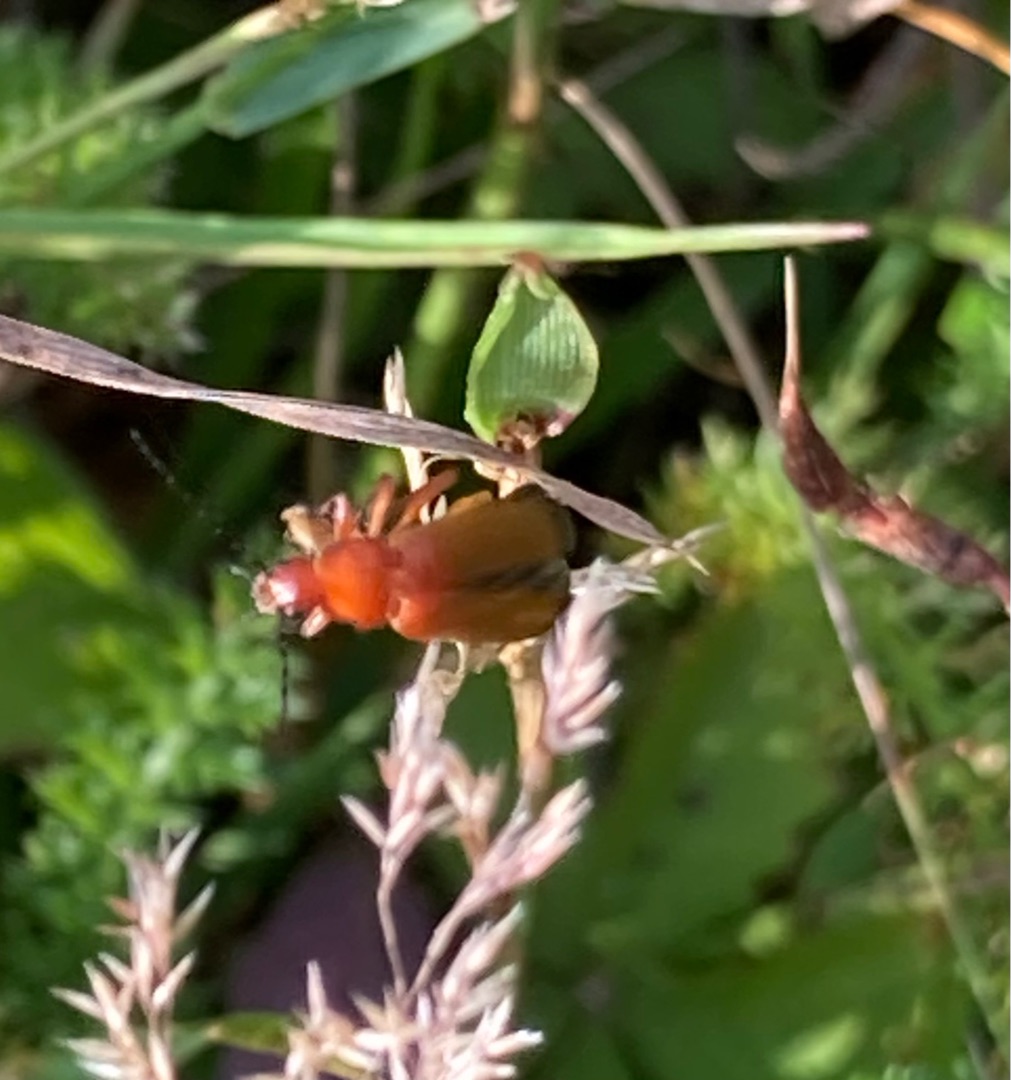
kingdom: Animalia
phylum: Arthropoda
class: Insecta
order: Hemiptera
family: Rhopalidae
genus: Corizus
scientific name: Corizus hyoscyami
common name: Rød kanttæge
